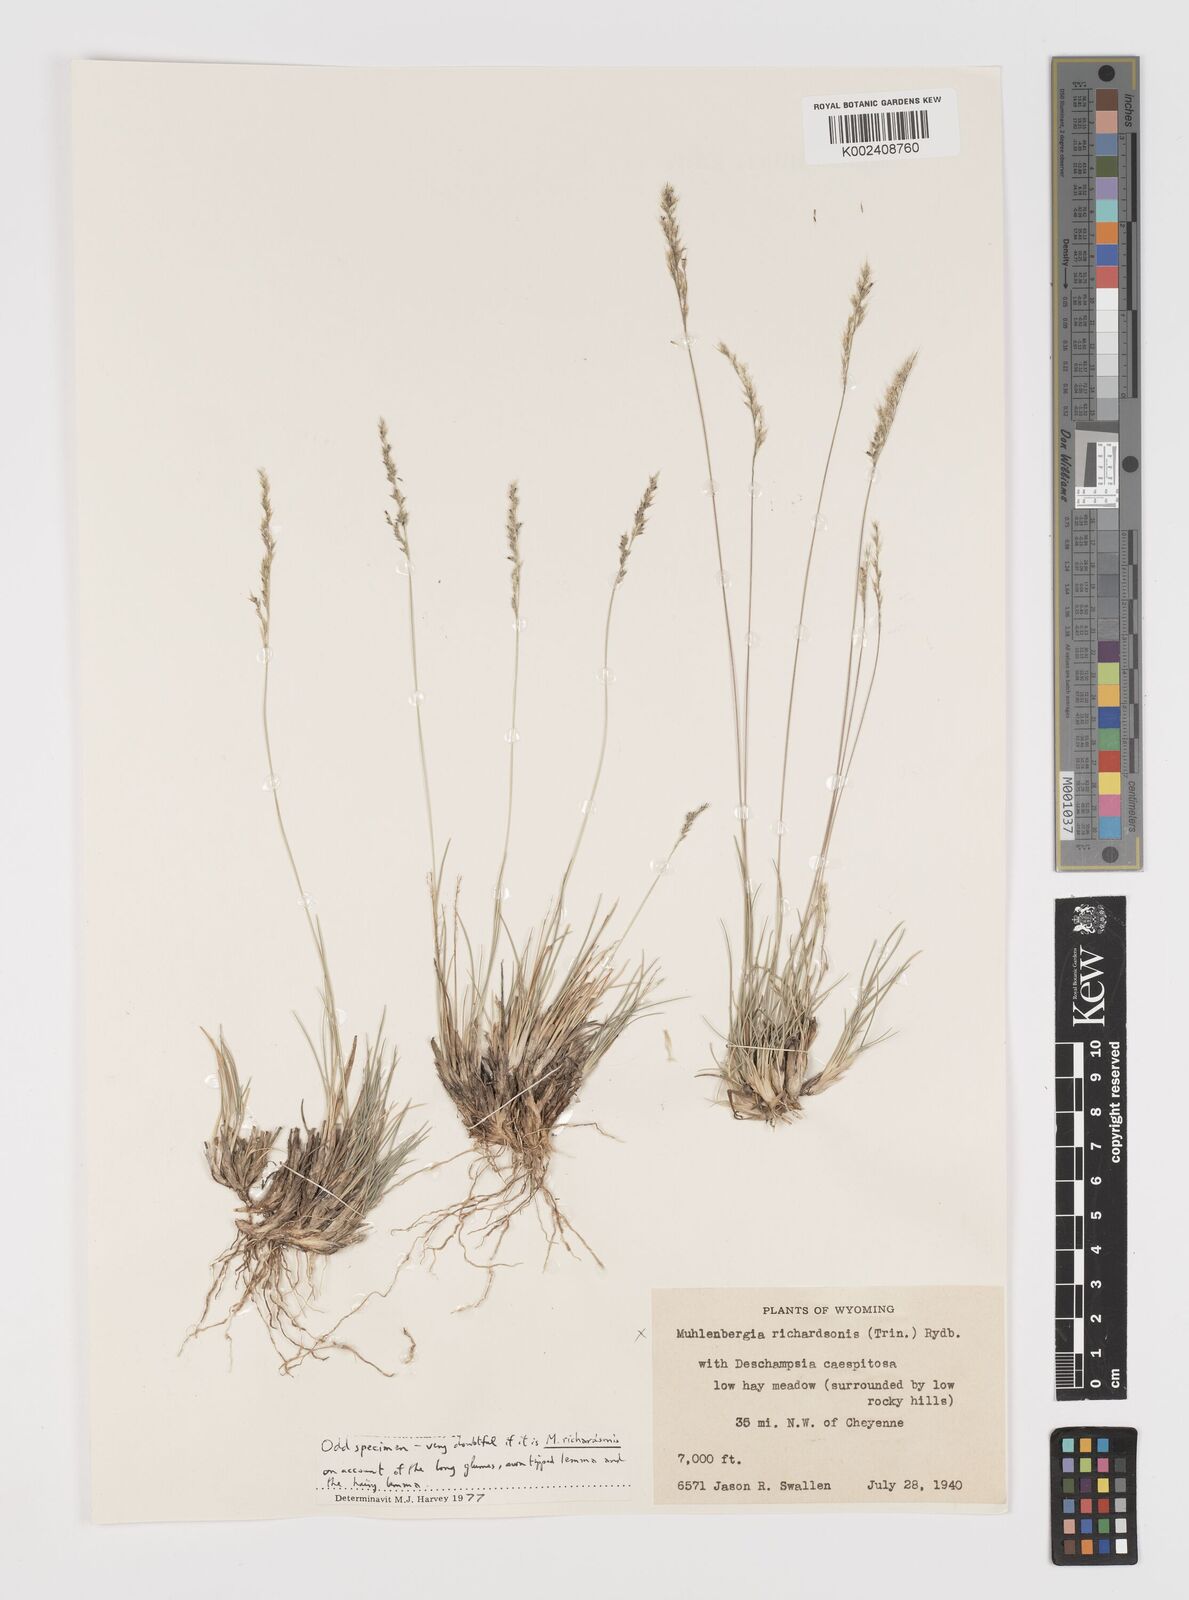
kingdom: Plantae
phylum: Tracheophyta
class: Liliopsida
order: Poales
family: Poaceae
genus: Muhlenbergia
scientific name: Muhlenbergia richardsonis
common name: Mat muhly
